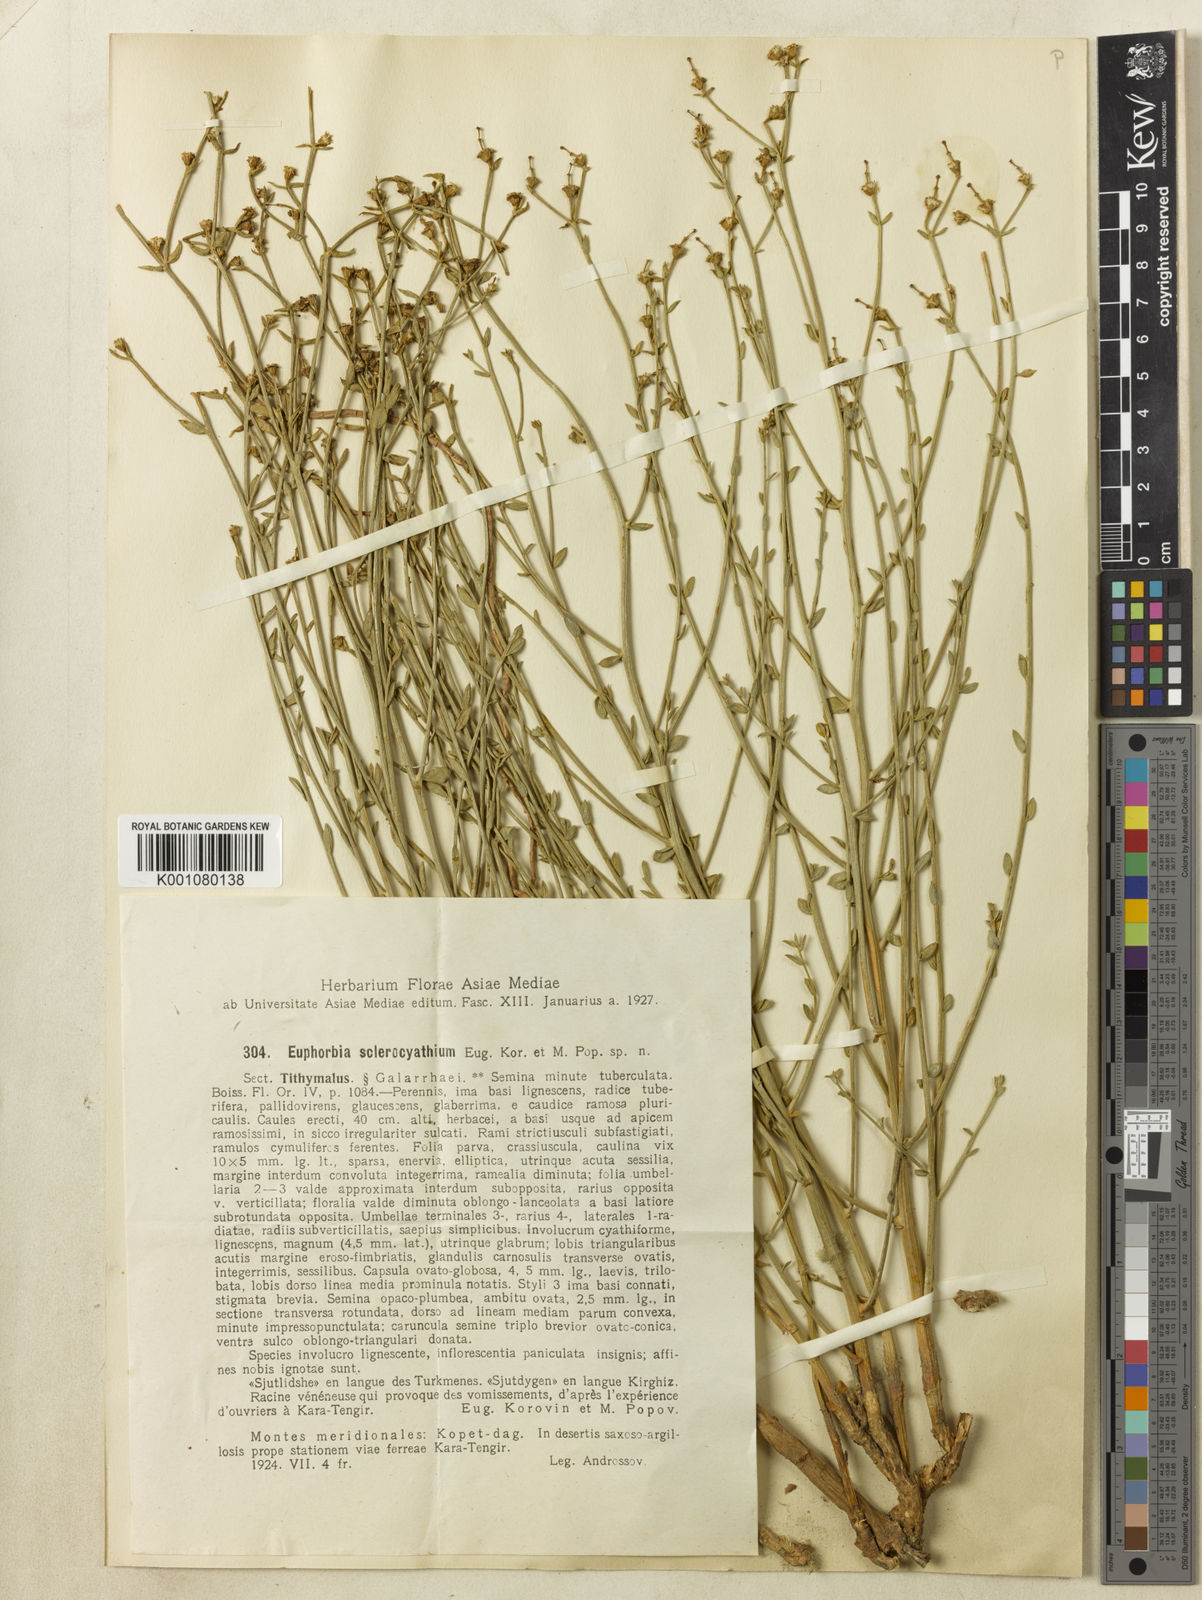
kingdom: Plantae
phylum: Tracheophyta
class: Magnoliopsida
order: Malpighiales
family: Euphorbiaceae
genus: Euphorbia
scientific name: Euphorbia sclerocyathium
